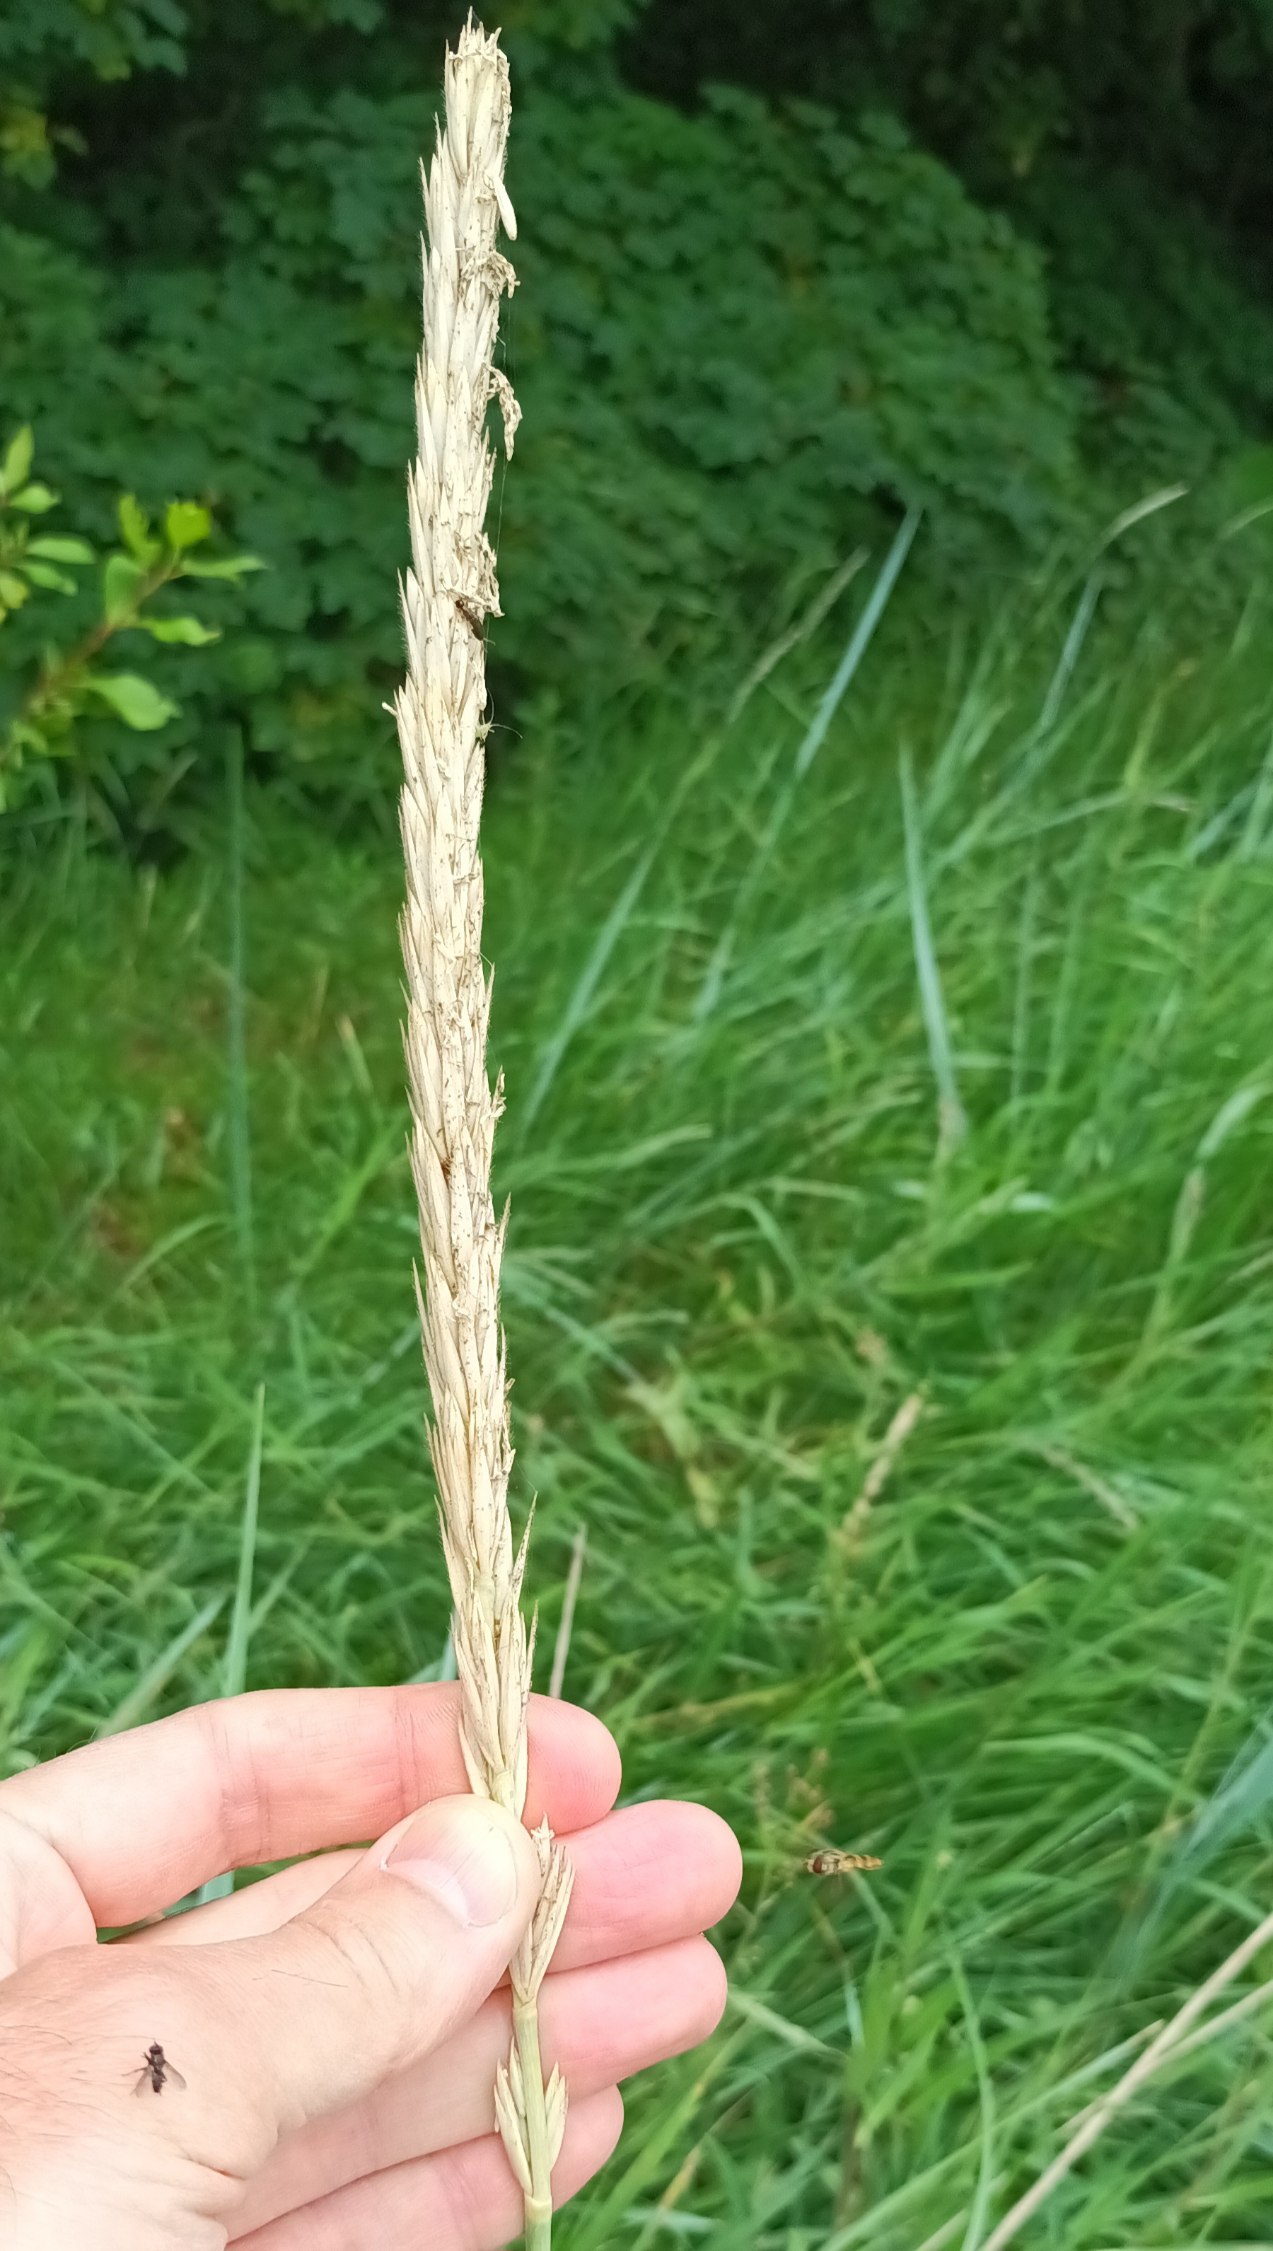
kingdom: Plantae
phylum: Tracheophyta
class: Liliopsida
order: Poales
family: Poaceae
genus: Leymus
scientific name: Leymus arenarius
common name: Marehalm
